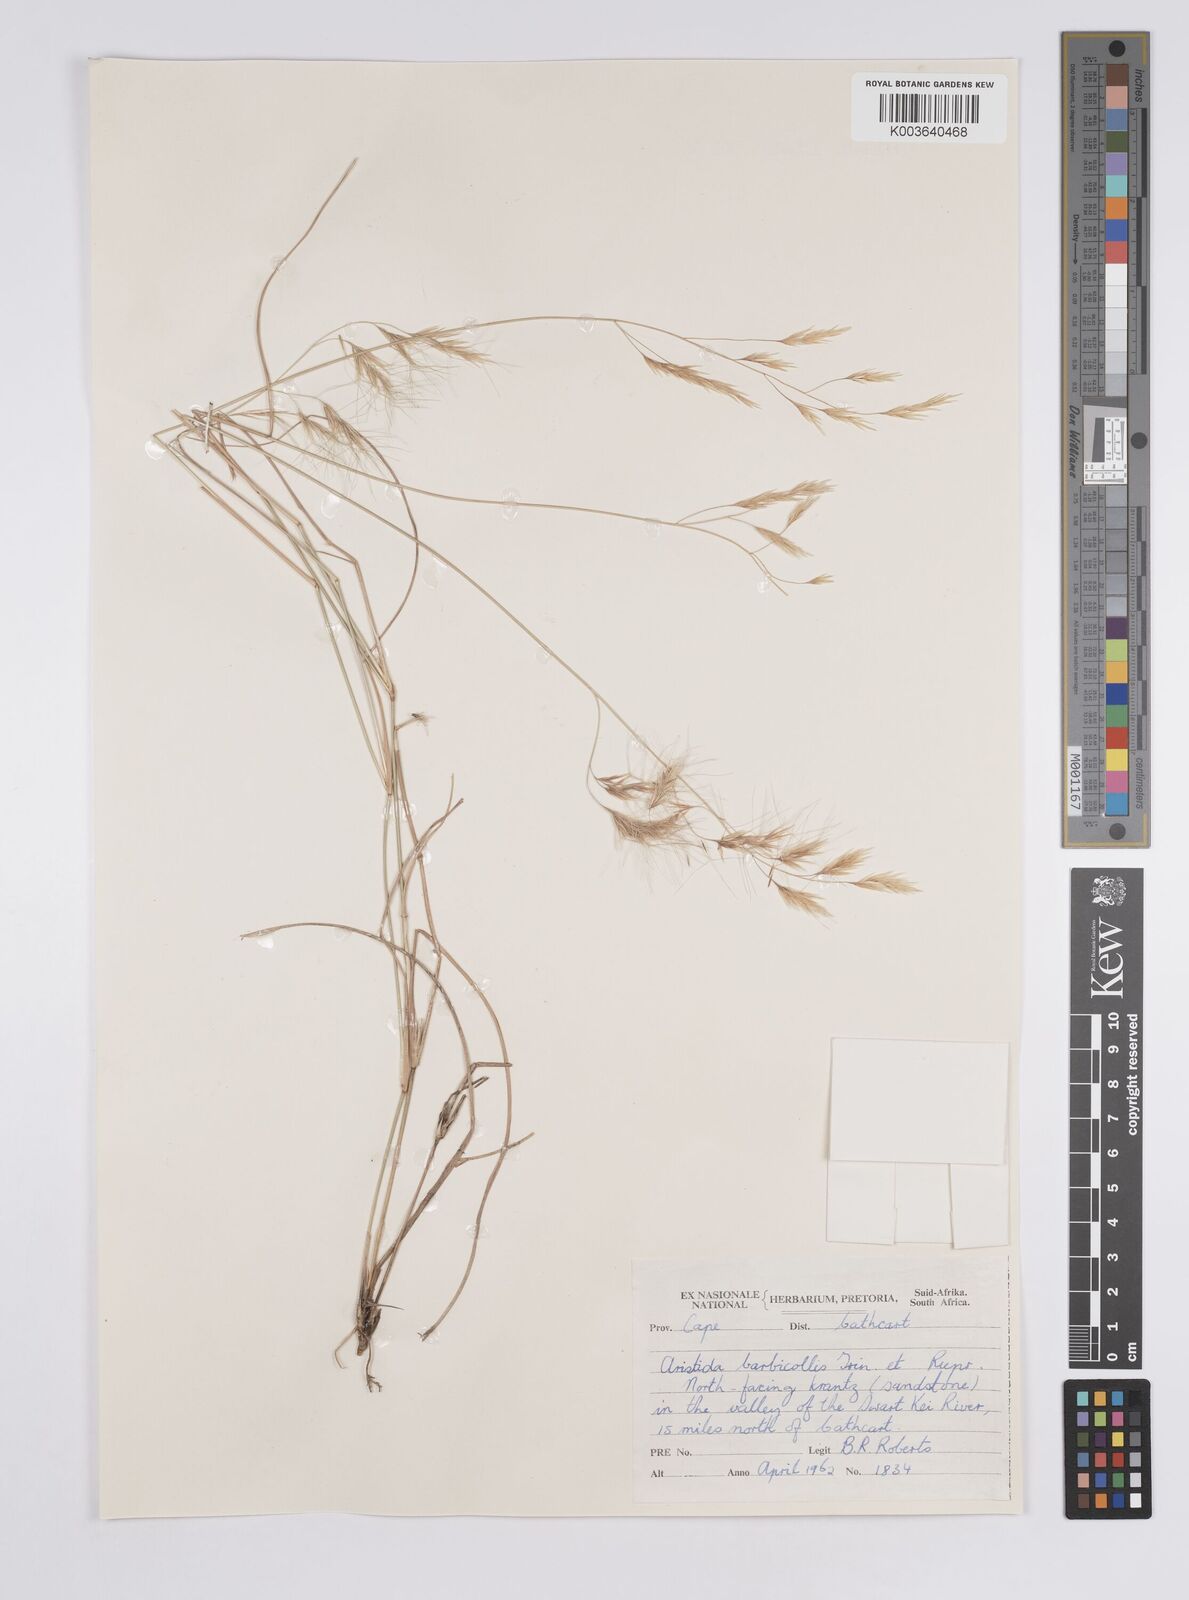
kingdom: Plantae
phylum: Tracheophyta
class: Liliopsida
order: Poales
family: Poaceae
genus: Aristida
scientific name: Aristida barbicollis
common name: Spreading prickle grass
